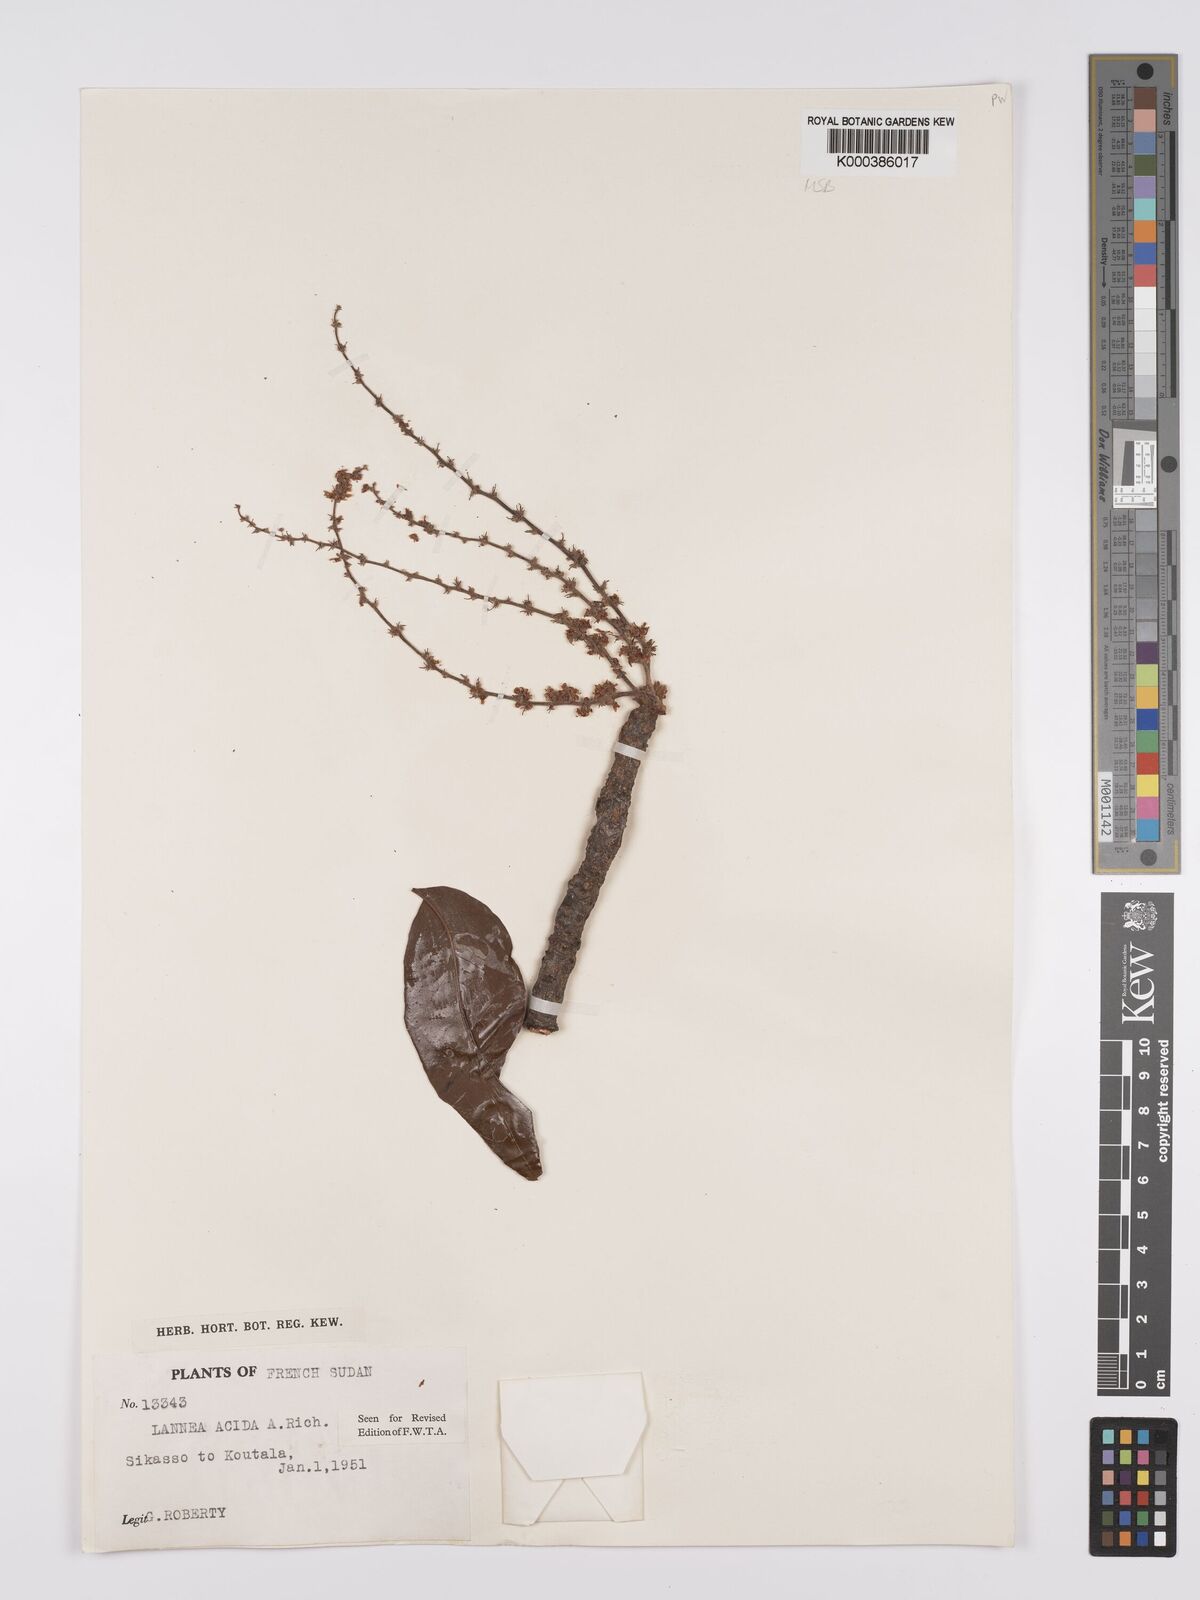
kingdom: Plantae
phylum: Tracheophyta
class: Magnoliopsida
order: Sapindales
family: Anacardiaceae
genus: Lannea
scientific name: Lannea acida
